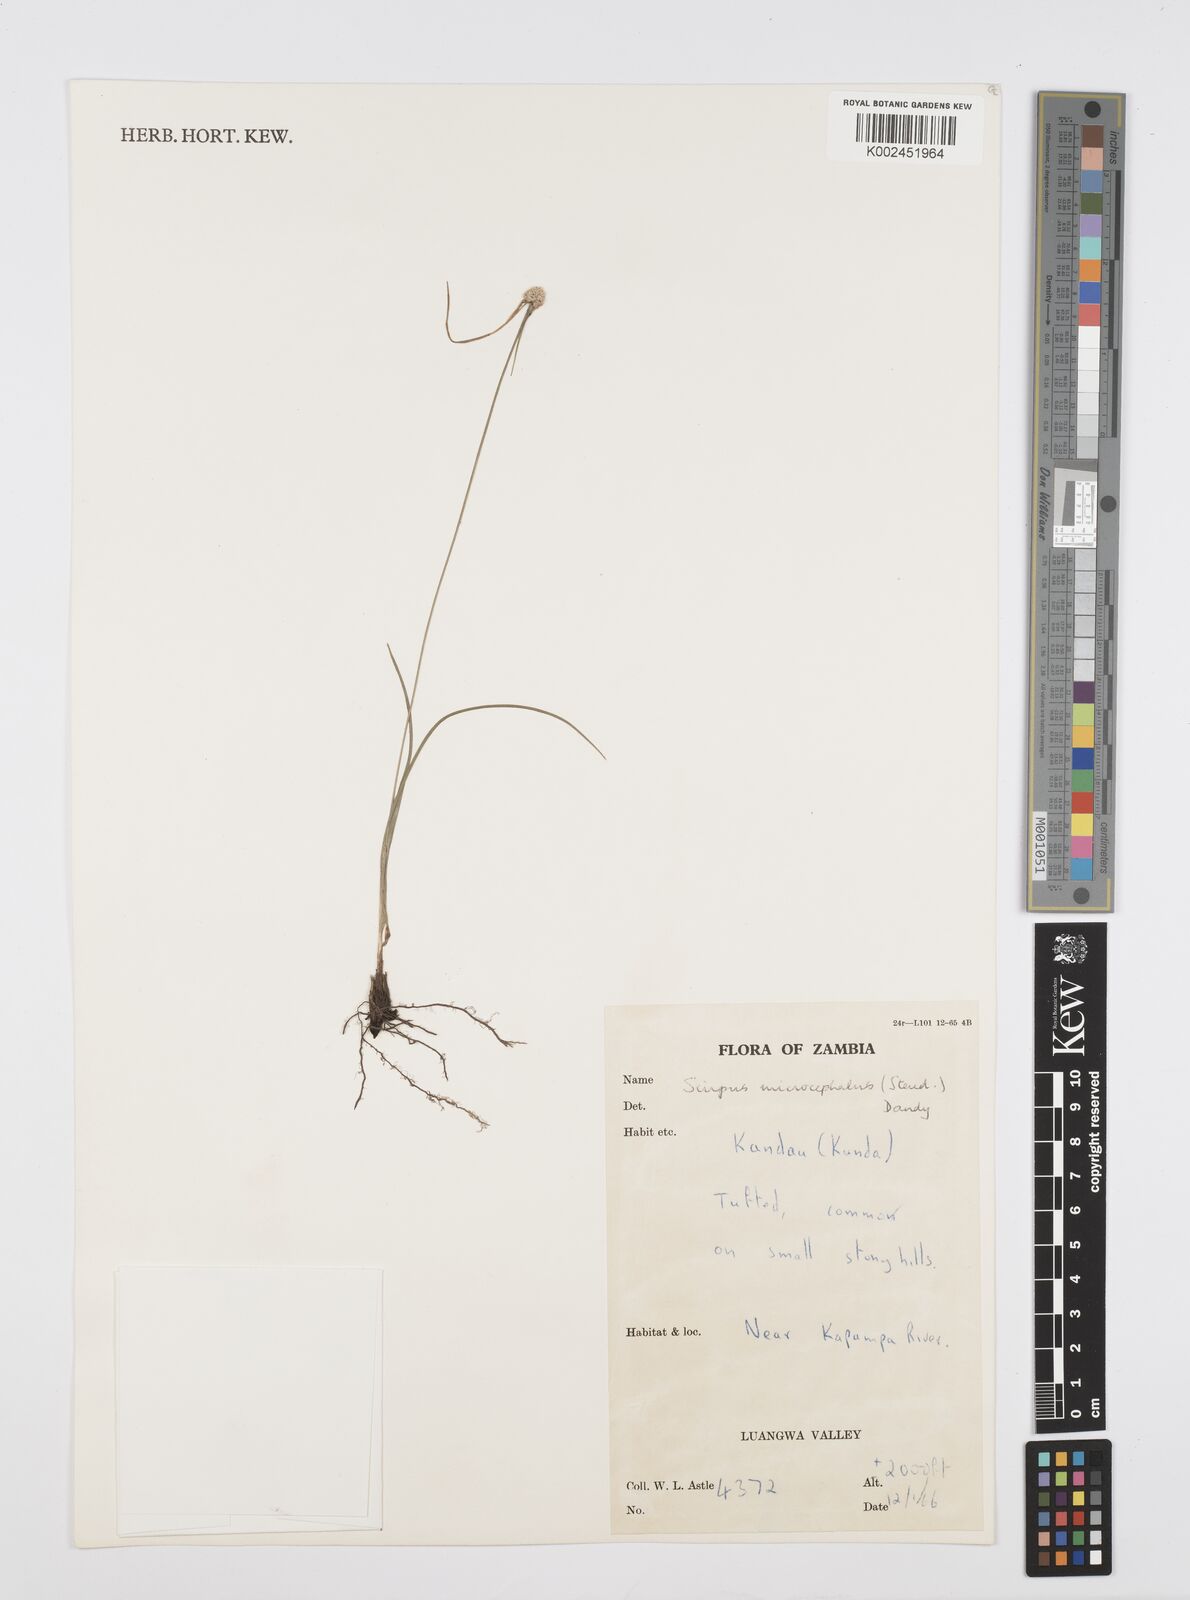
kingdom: Plantae
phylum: Tracheophyta
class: Liliopsida
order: Poales
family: Cyperaceae
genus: Cyperus
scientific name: Cyperus microcephalus
